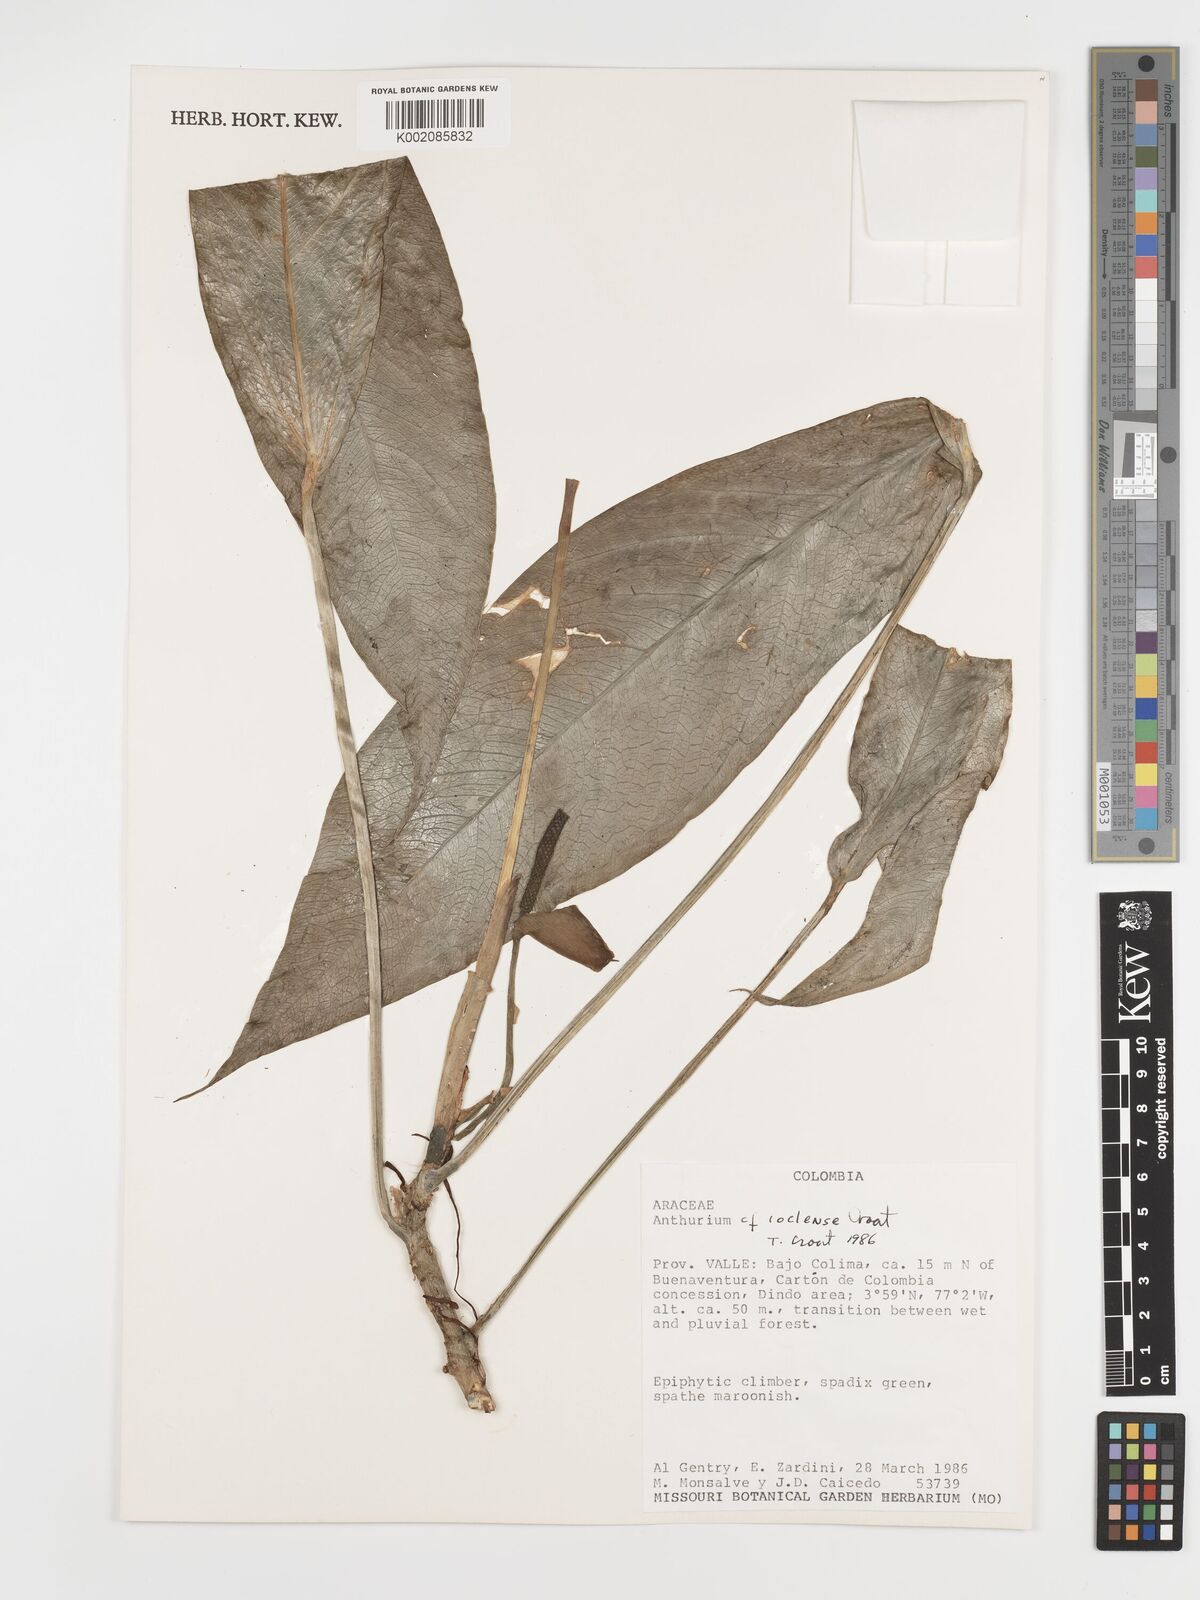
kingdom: Plantae
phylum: Tracheophyta
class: Liliopsida
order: Alismatales
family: Araceae
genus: Anthurium
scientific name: Anthurium coclense
